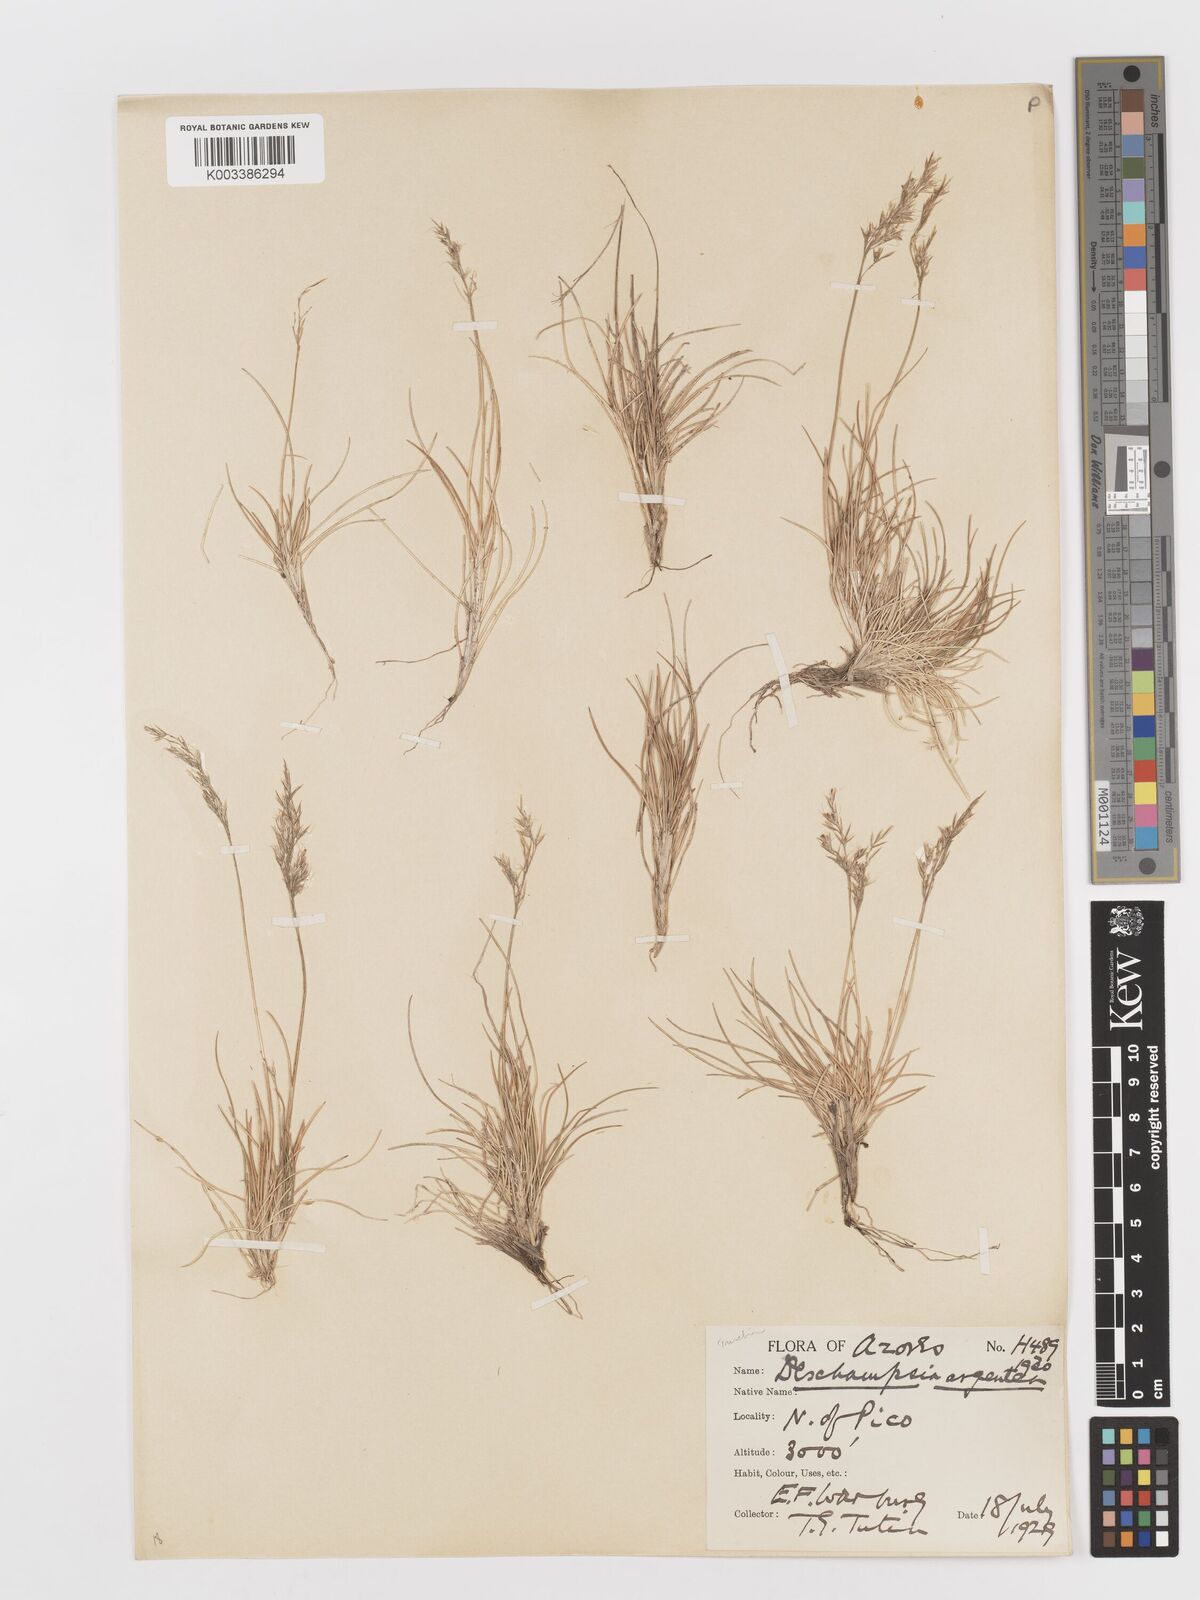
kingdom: Plantae
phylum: Tracheophyta
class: Liliopsida
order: Poales
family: Poaceae
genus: Avenella
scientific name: Avenella foliosa
